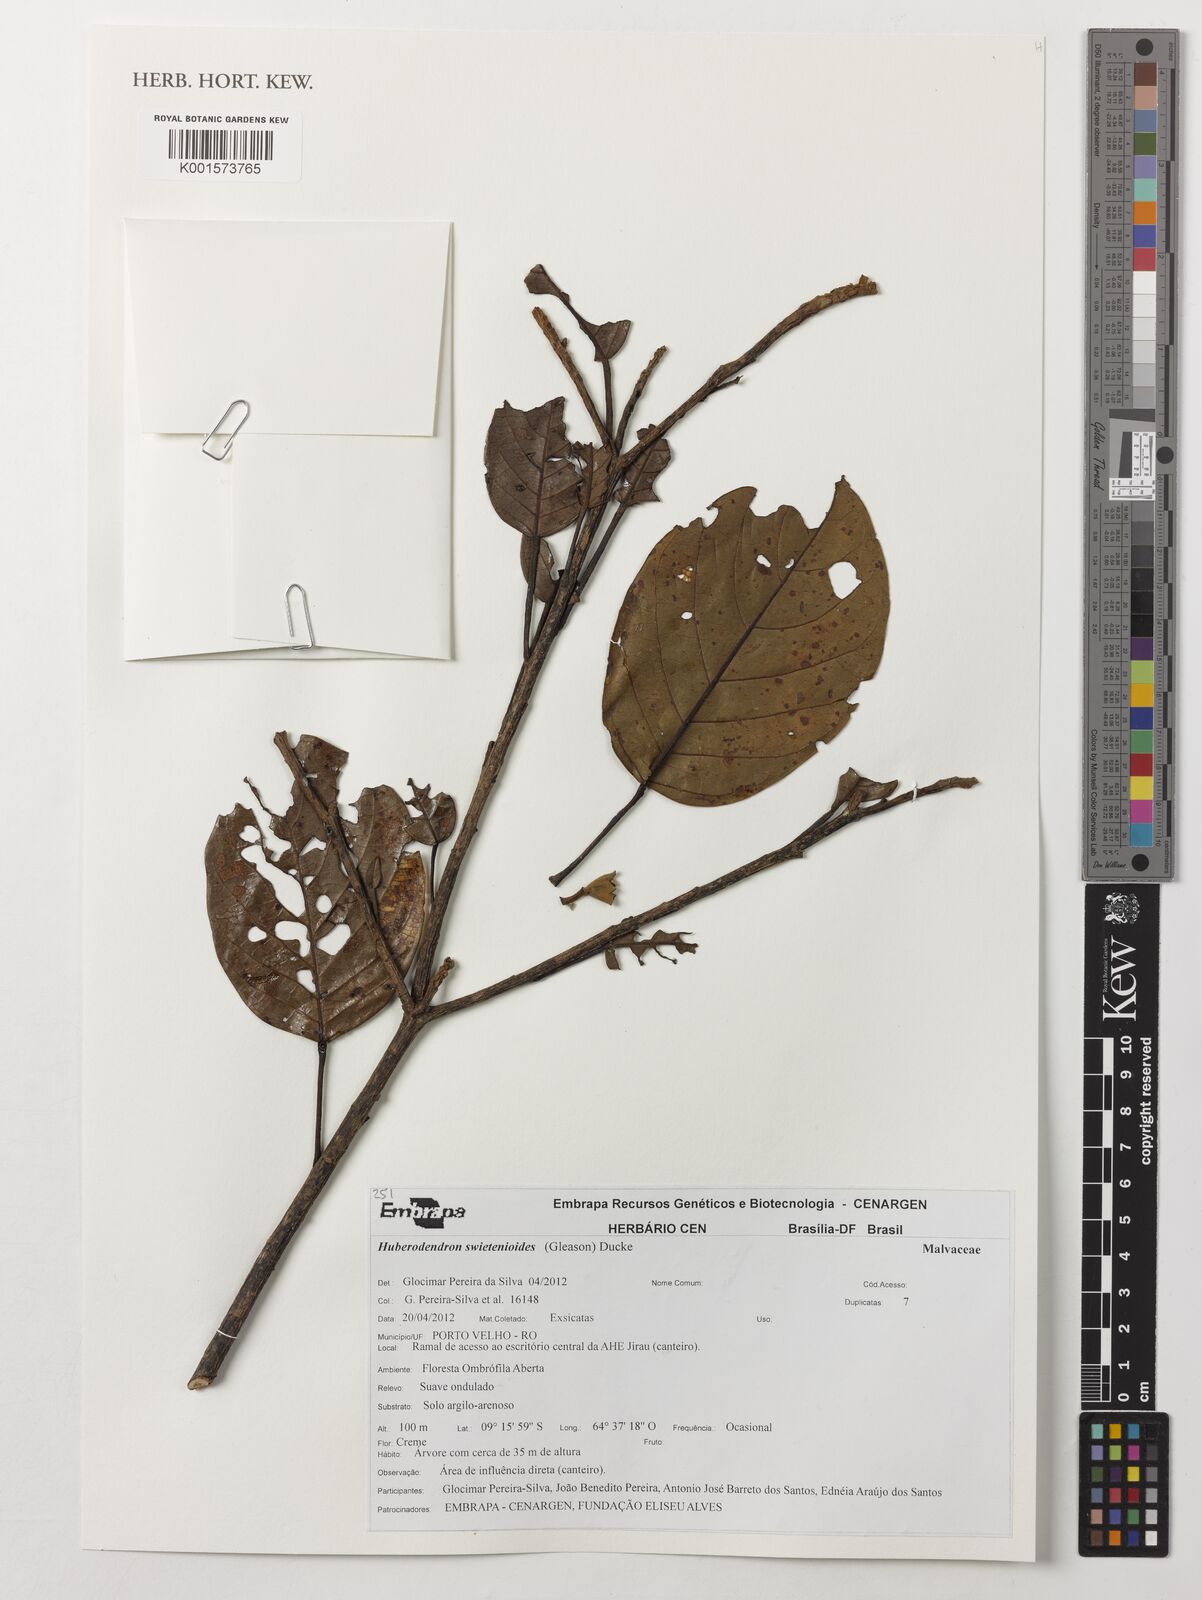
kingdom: Plantae
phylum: Tracheophyta
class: Magnoliopsida
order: Malvales
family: Malvaceae
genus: Huberodendron
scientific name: Huberodendron swietenioides
